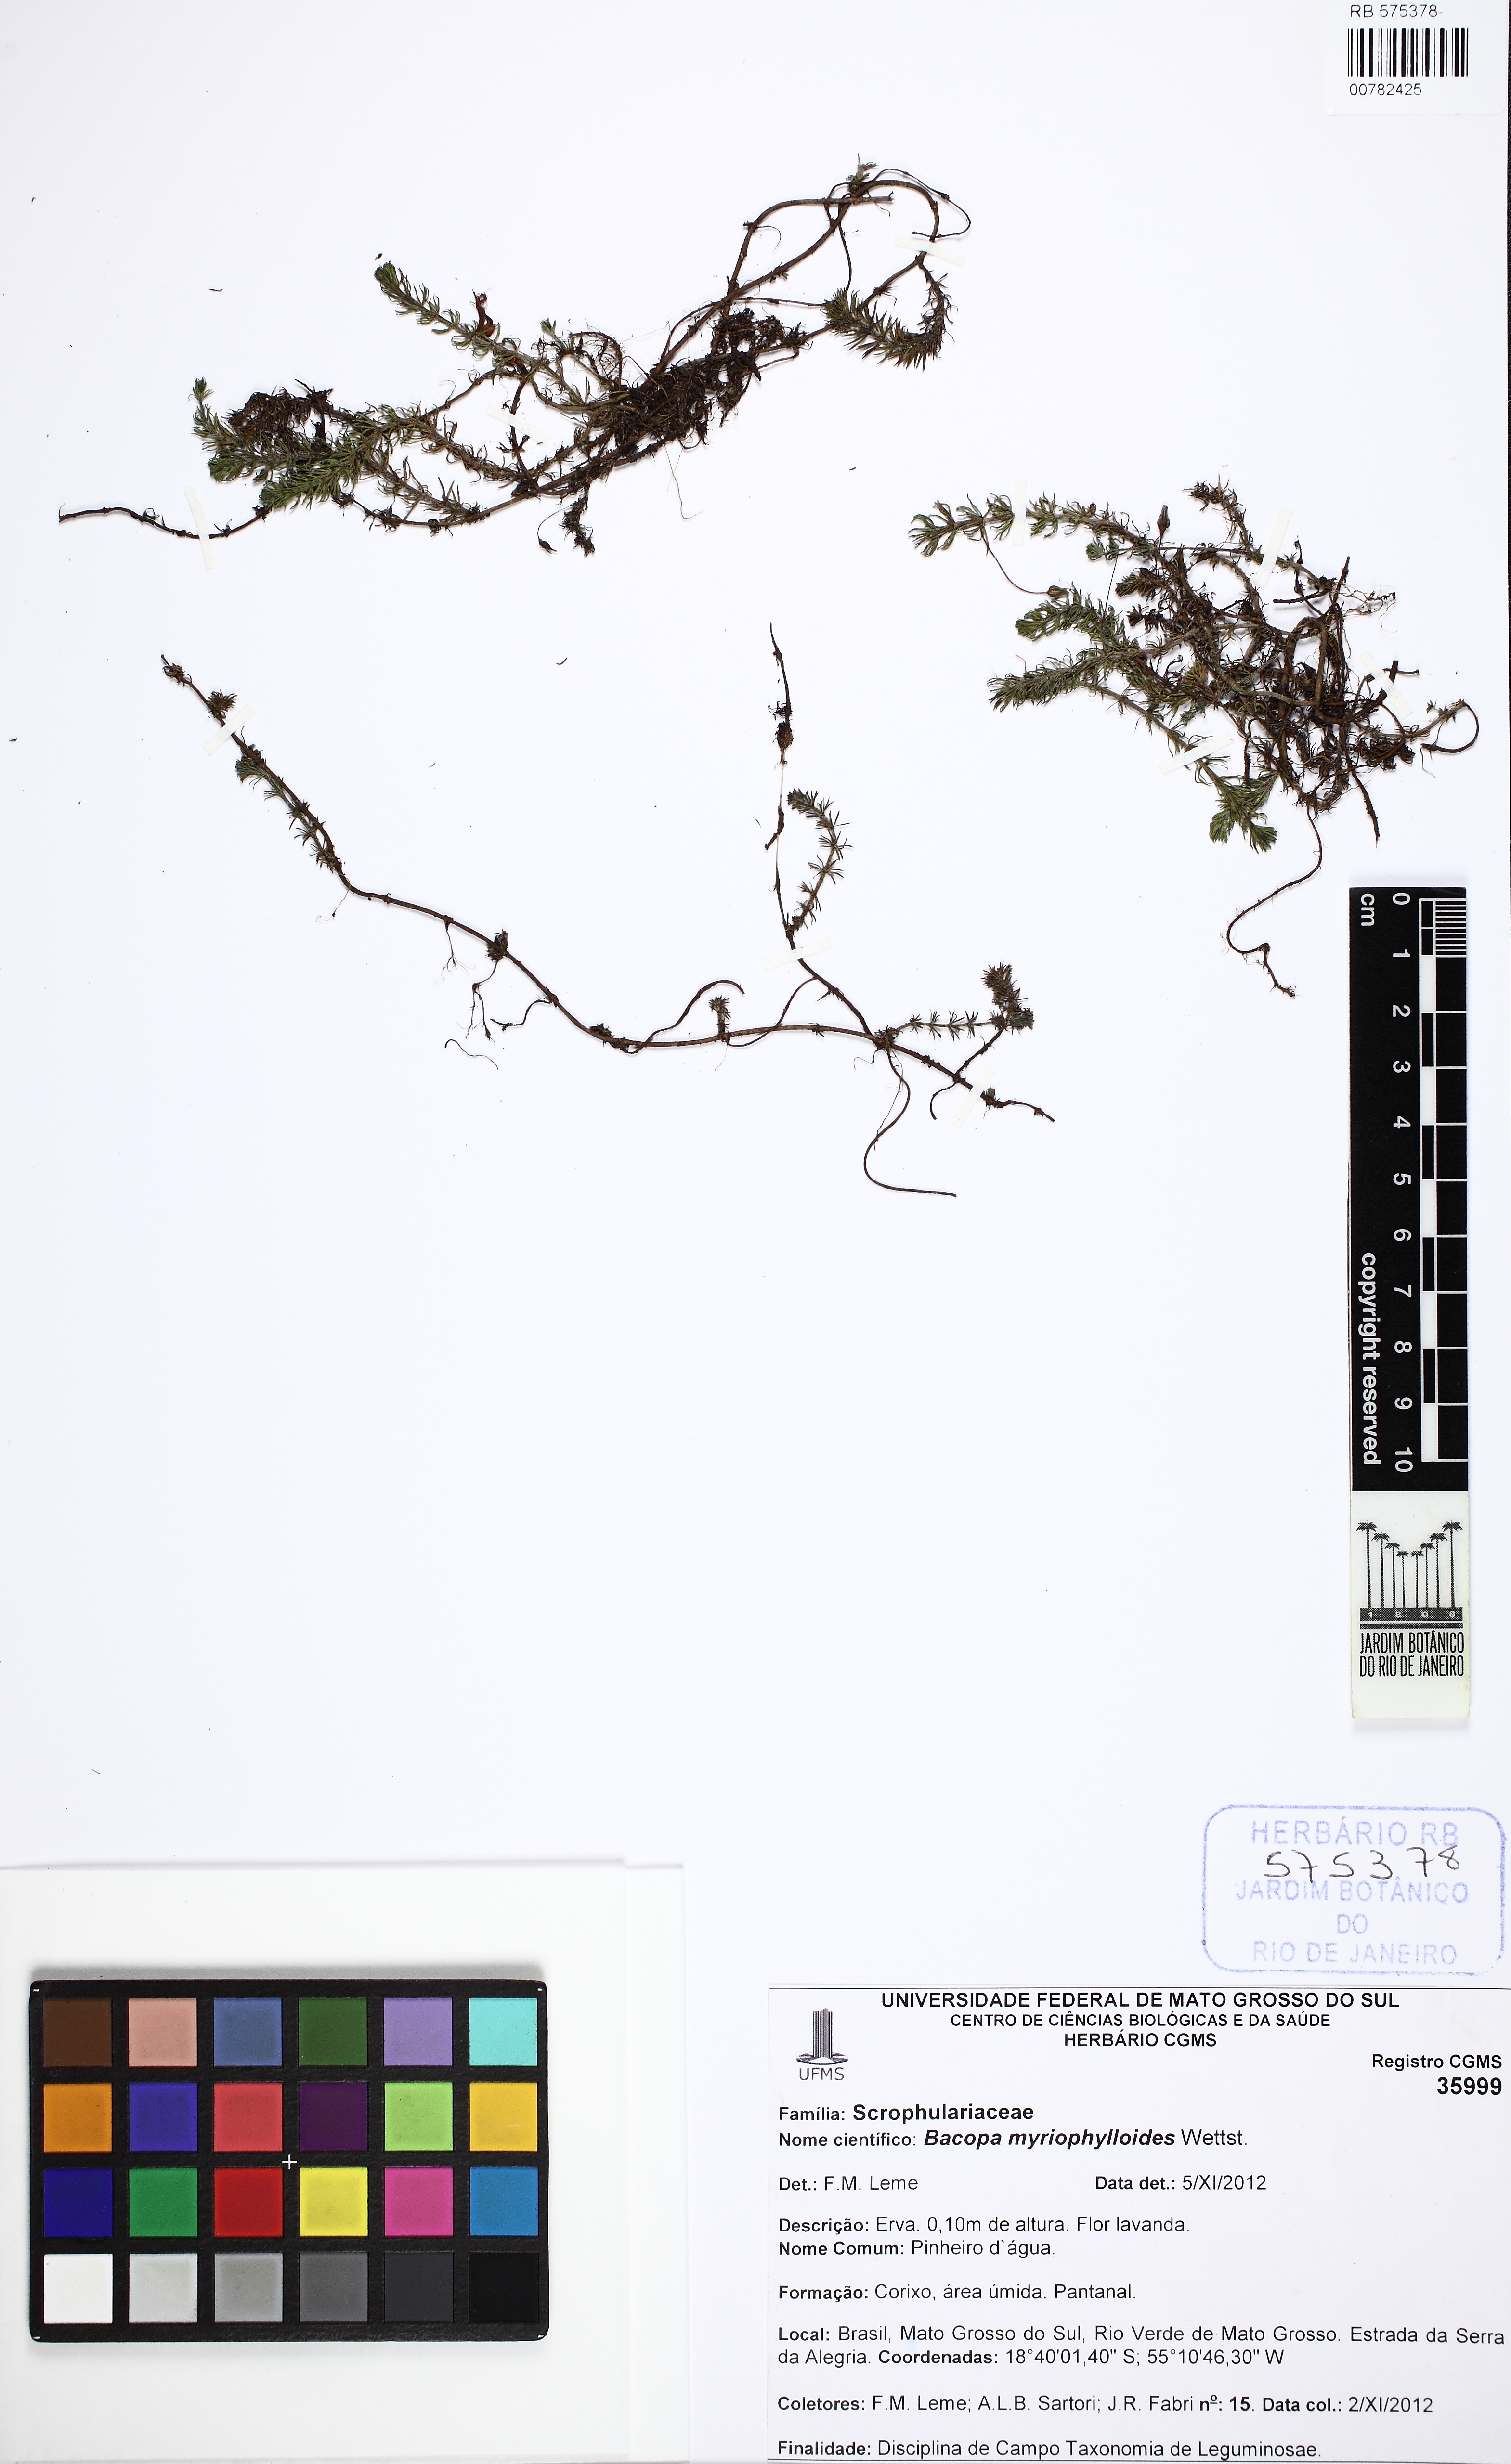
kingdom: Plantae
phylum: Tracheophyta
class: Magnoliopsida
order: Lamiales
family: Plantaginaceae
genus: Bacopa
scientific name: Bacopa myriophylloides
